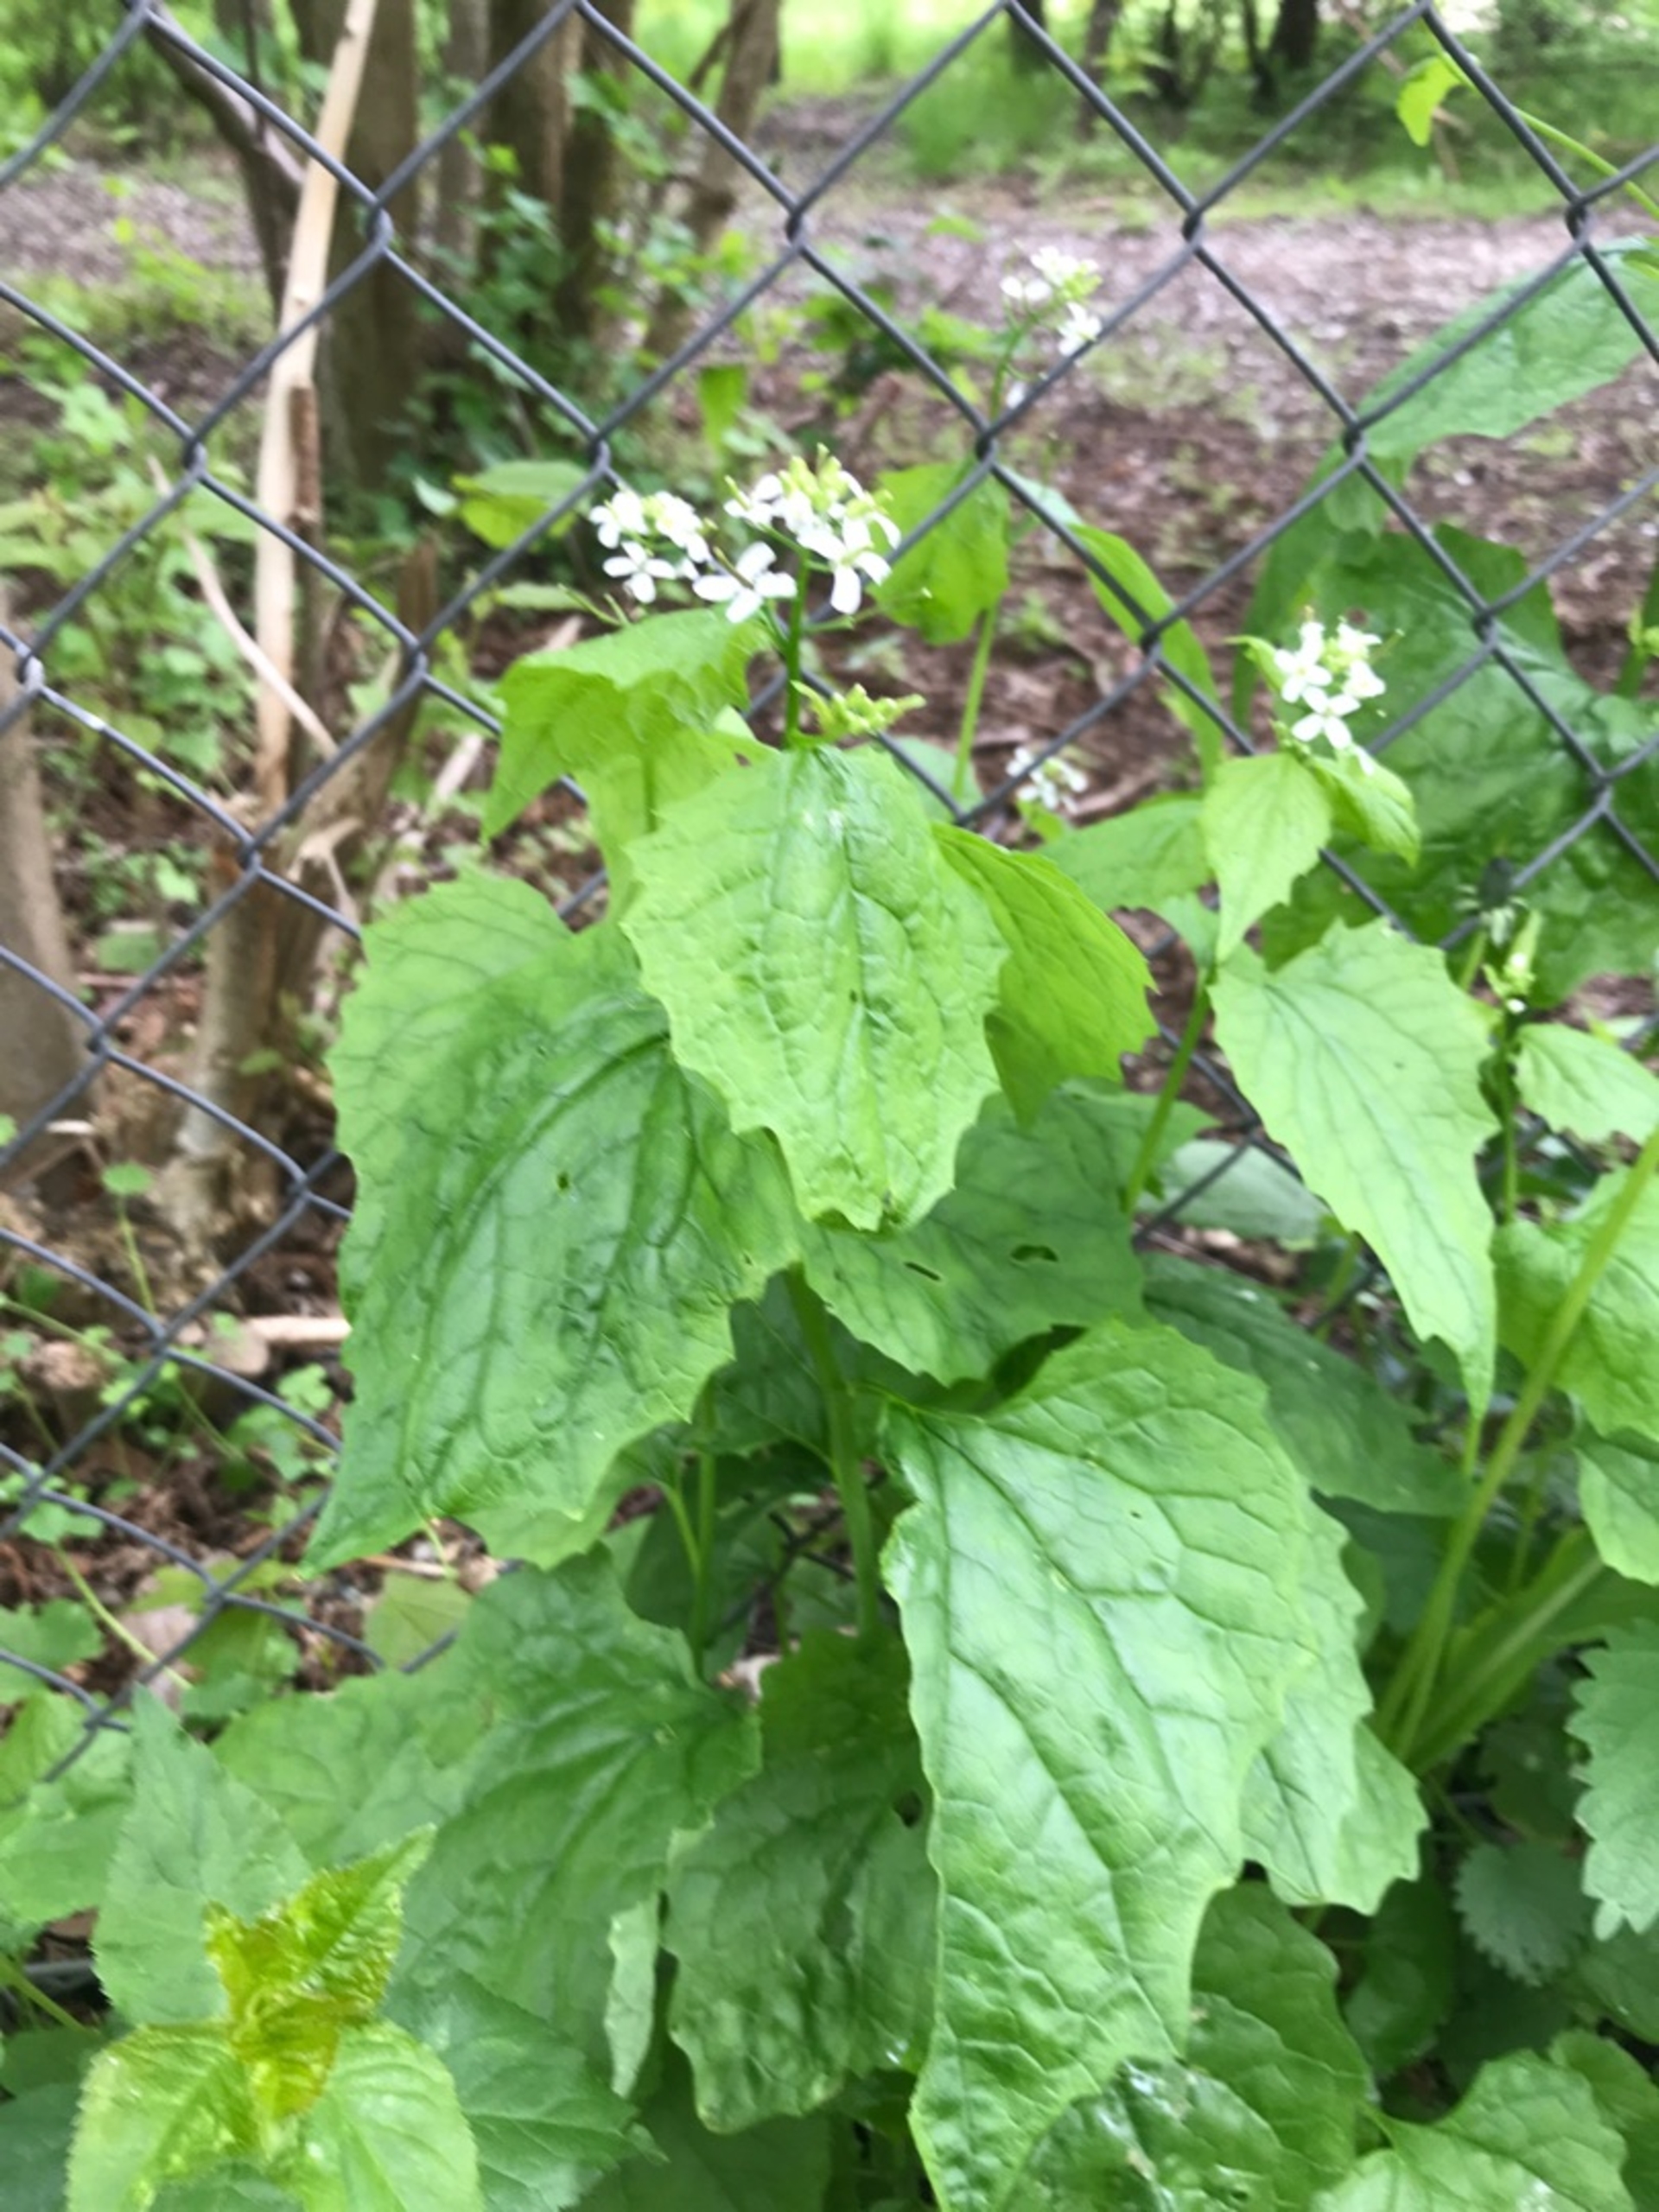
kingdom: Plantae
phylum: Tracheophyta
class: Magnoliopsida
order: Brassicales
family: Brassicaceae
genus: Alliaria
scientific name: Alliaria petiolata
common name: Løgkarse
